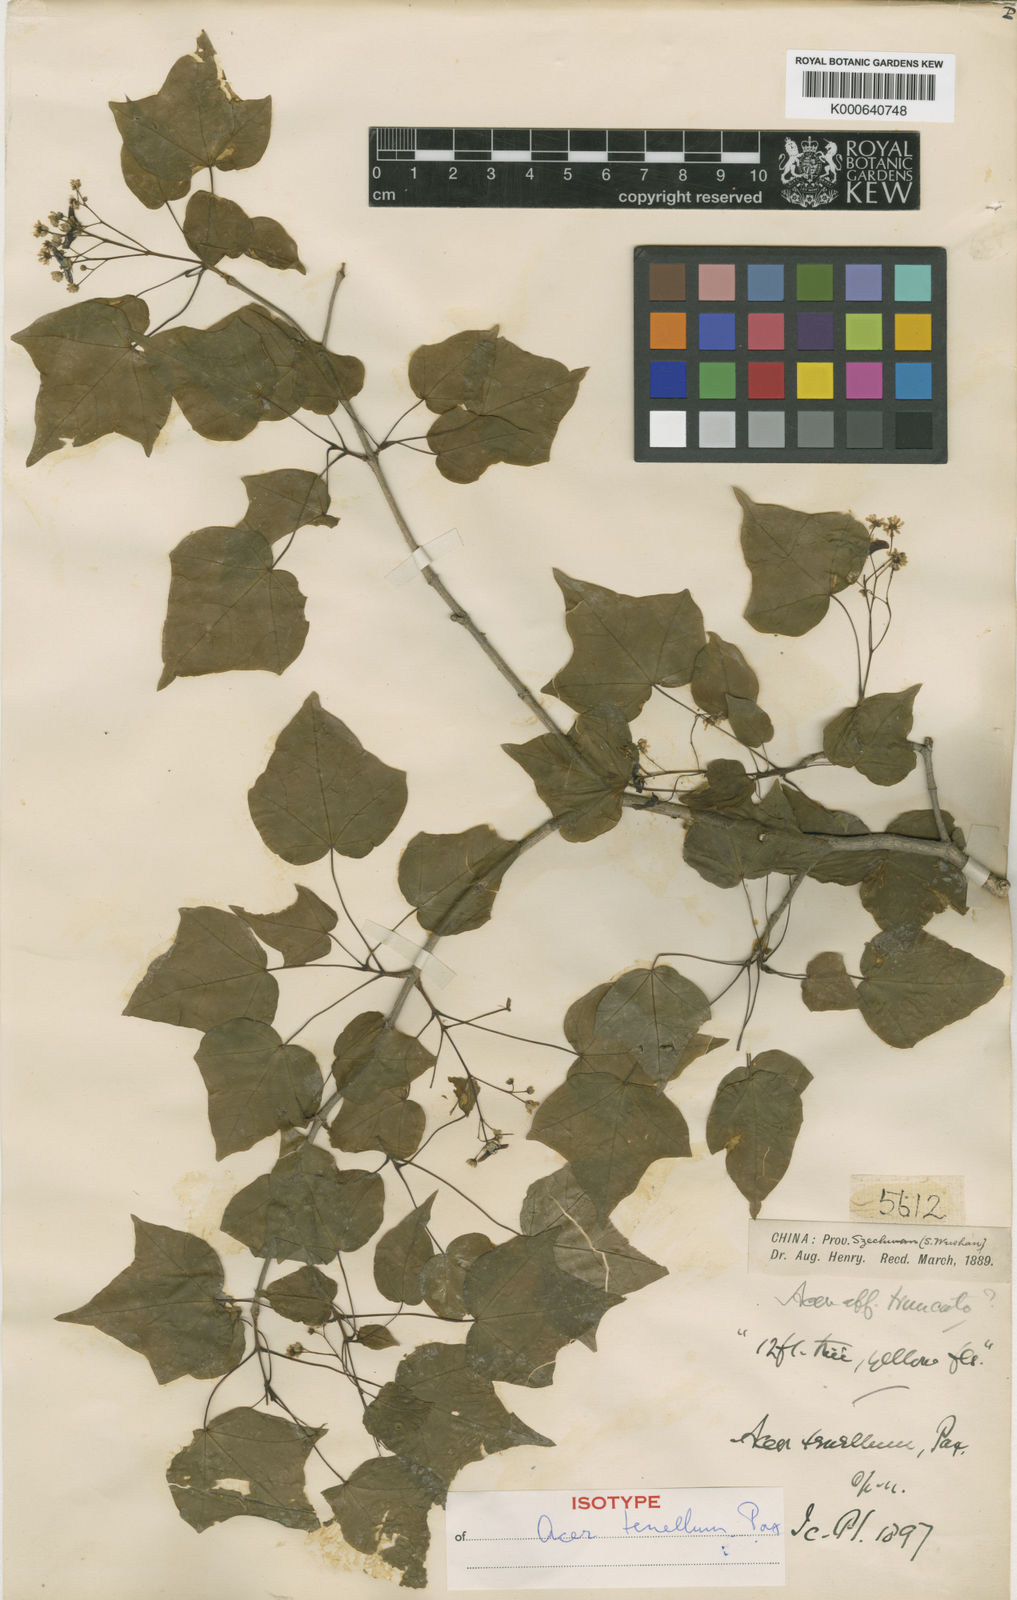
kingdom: Plantae
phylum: Tracheophyta
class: Magnoliopsida
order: Sapindales
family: Sapindaceae
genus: Acer
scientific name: Acer tenellum
